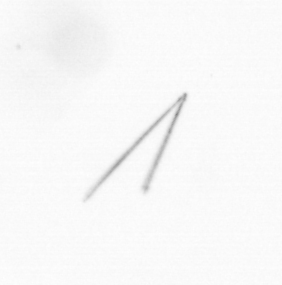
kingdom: Chromista
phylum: Ochrophyta
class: Bacillariophyceae
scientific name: Bacillariophyceae
